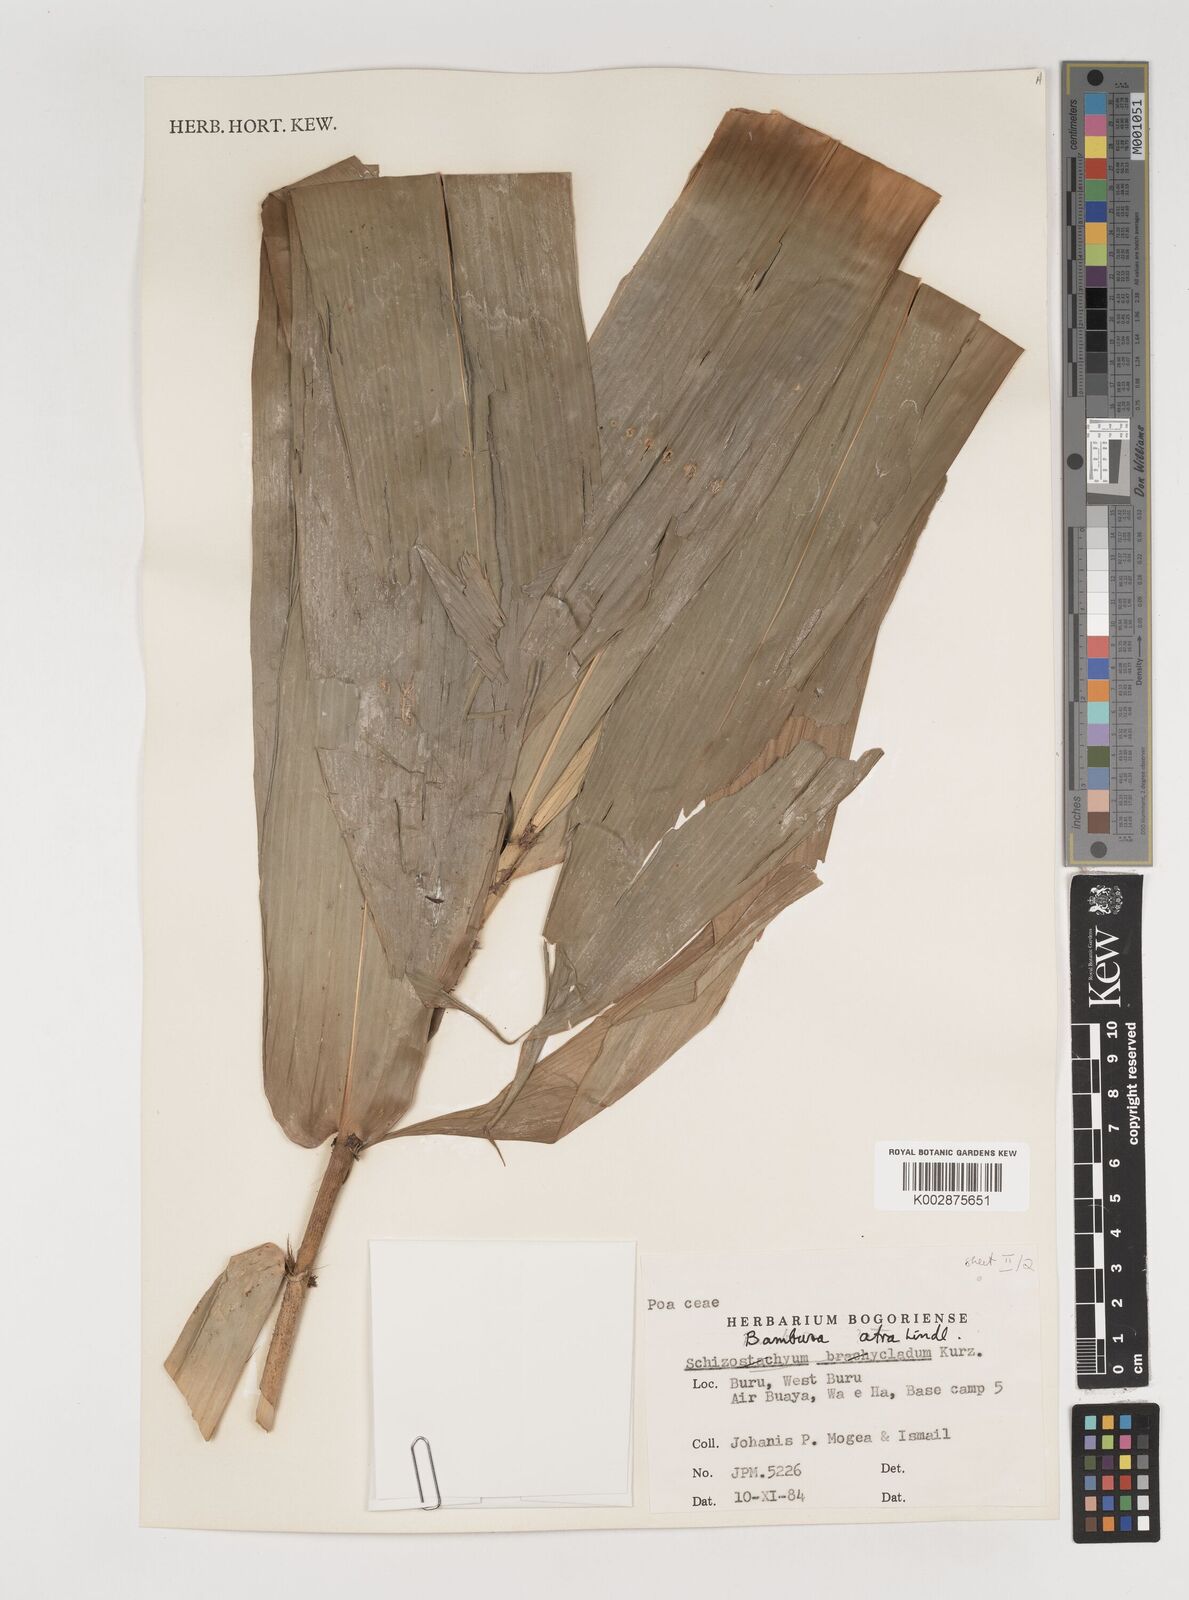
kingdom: Plantae
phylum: Tracheophyta
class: Liliopsida
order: Poales
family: Poaceae
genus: Neololeba
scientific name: Neololeba
